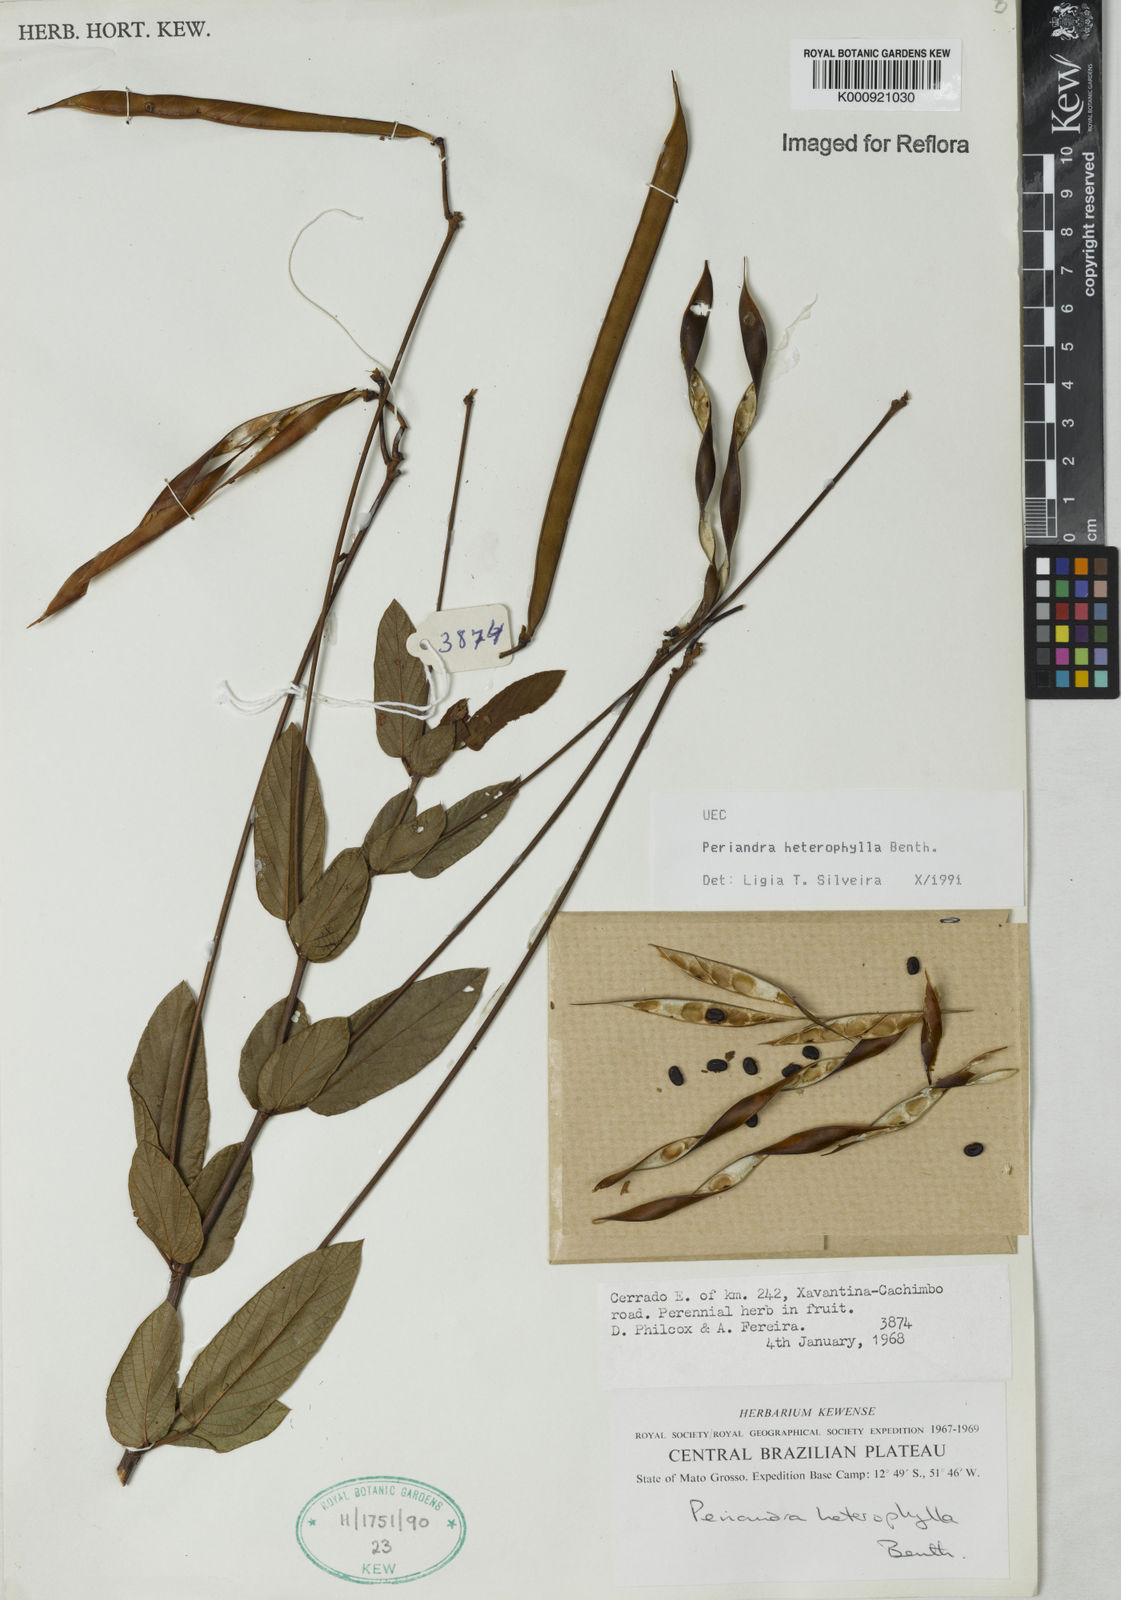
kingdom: Plantae
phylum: Tracheophyta
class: Magnoliopsida
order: Fabales
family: Fabaceae
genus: Periandra
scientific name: Periandra heterophylla
